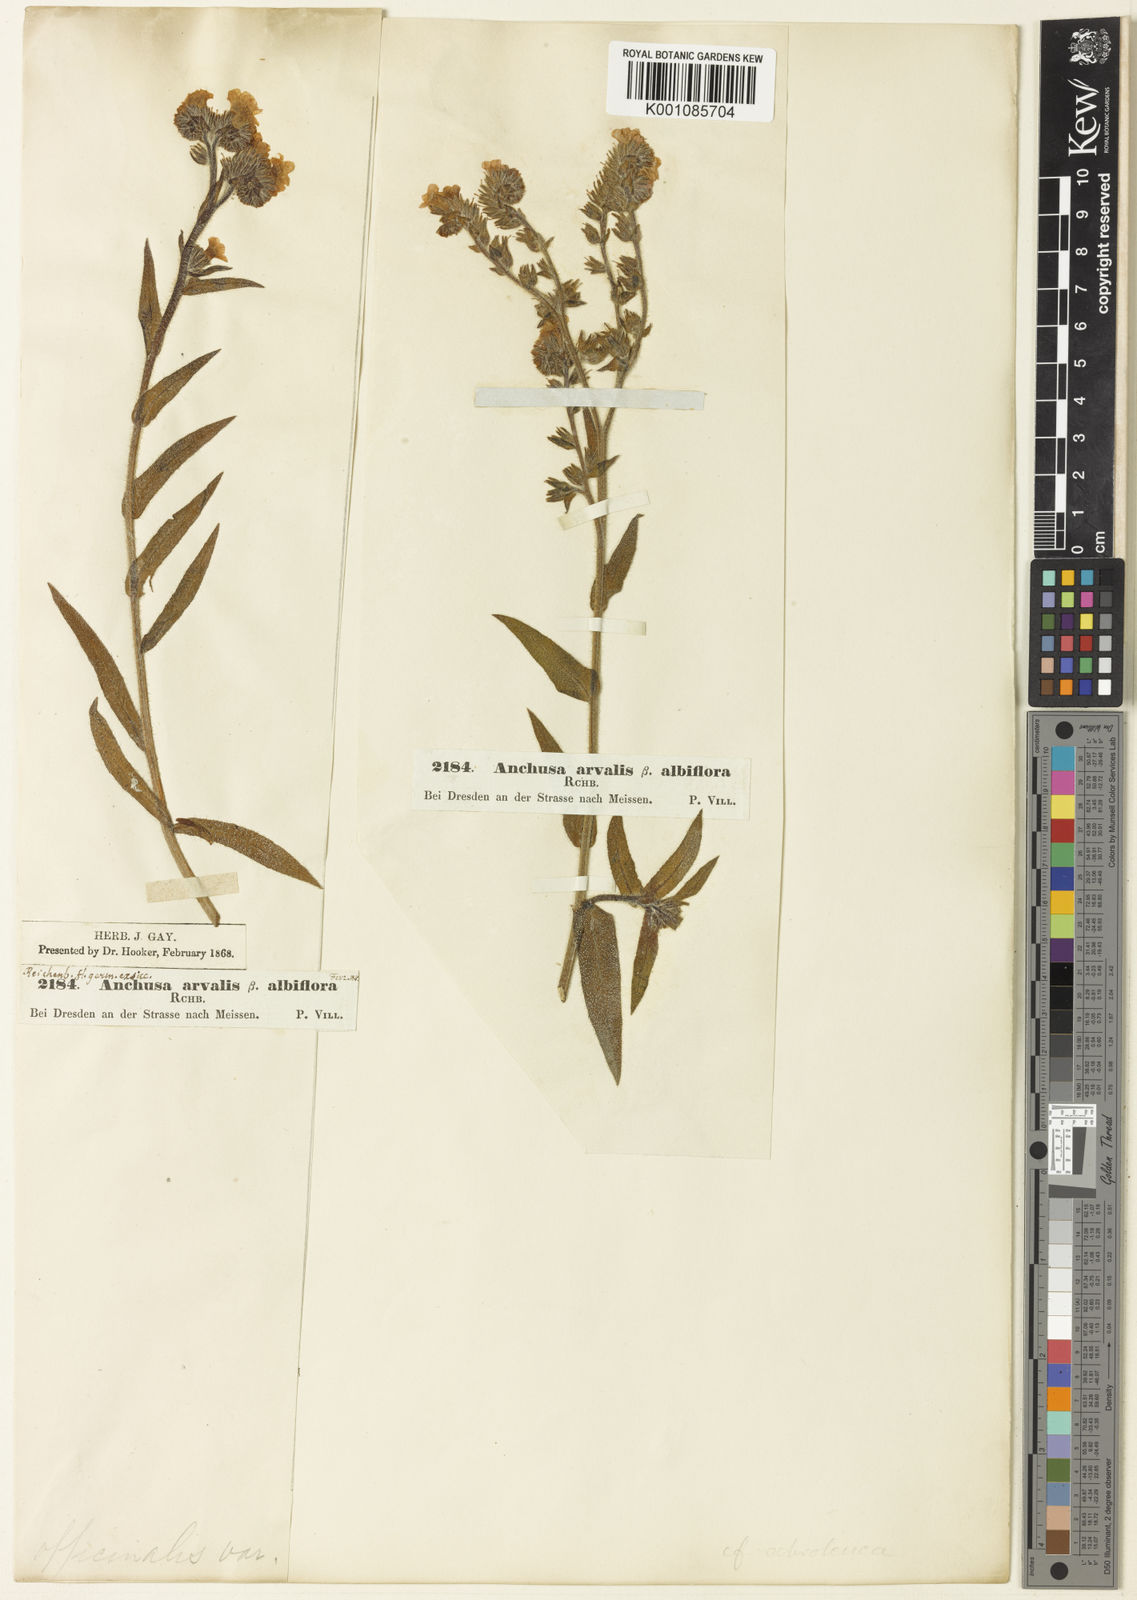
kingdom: Plantae
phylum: Tracheophyta
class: Magnoliopsida
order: Boraginales
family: Boraginaceae
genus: Anchusa
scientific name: Anchusa officinalis
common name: Alkanet
